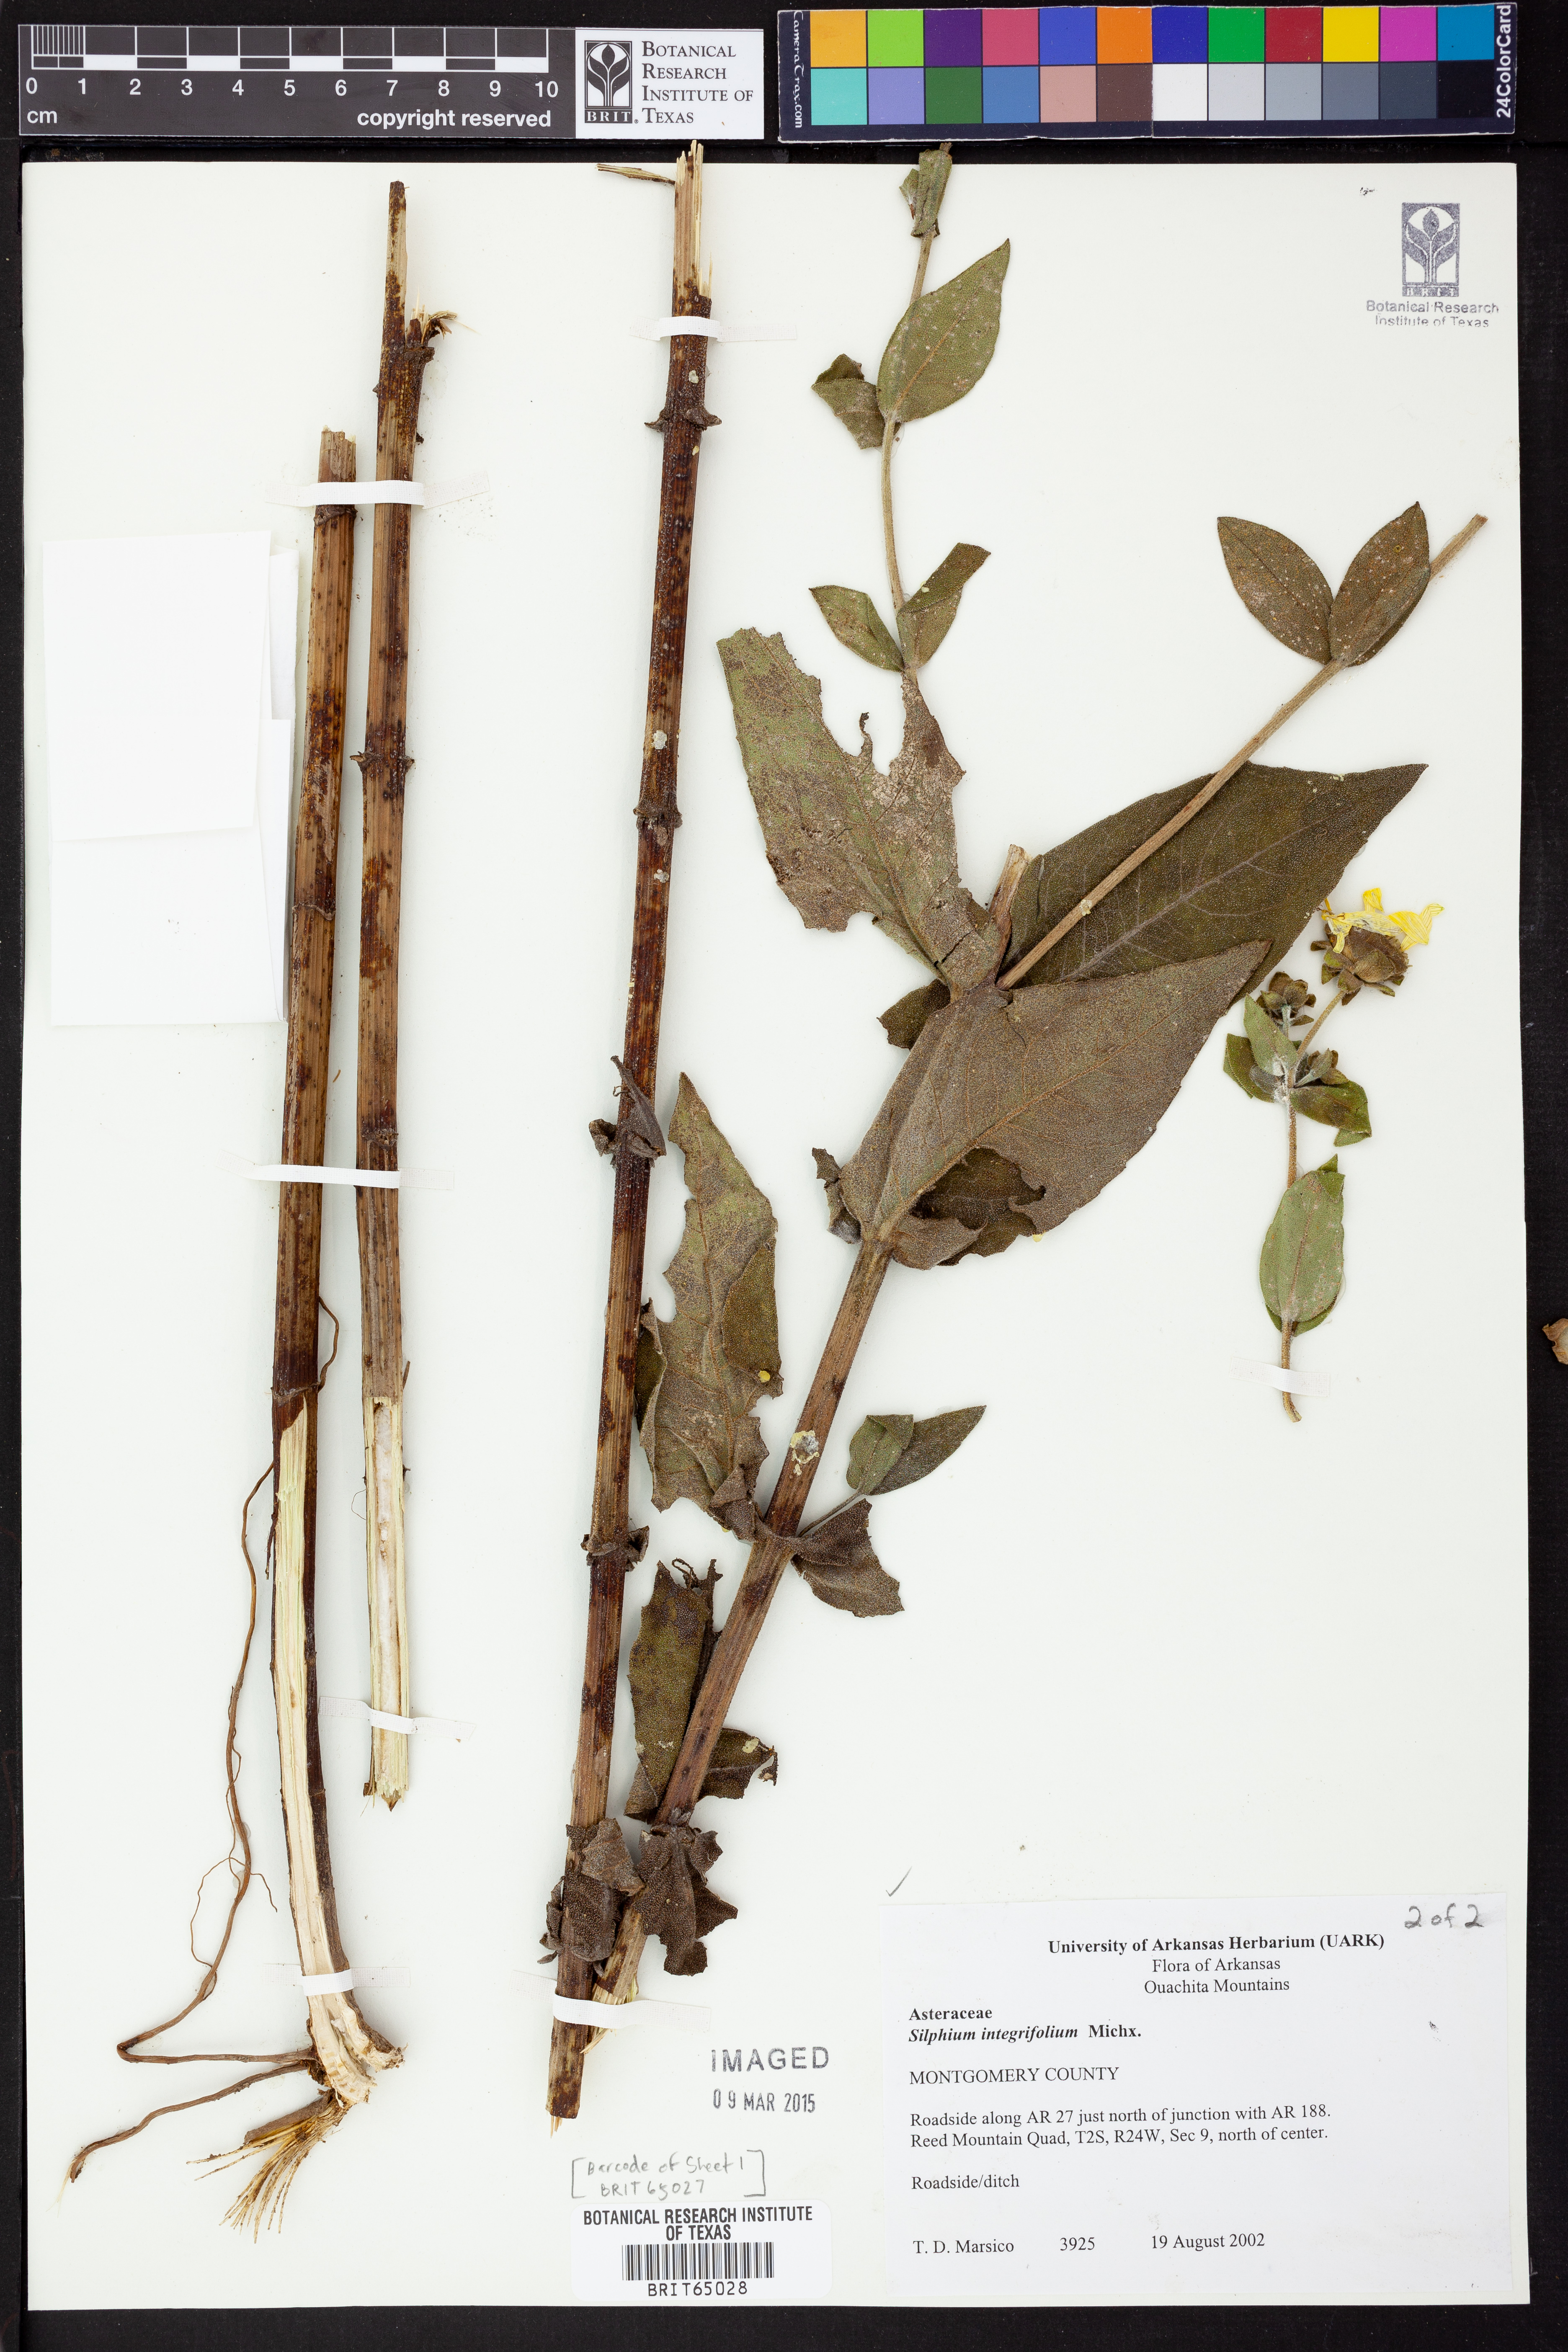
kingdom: Plantae
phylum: Tracheophyta
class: Magnoliopsida
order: Asterales
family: Asteraceae
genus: Silphium
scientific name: Silphium integrifolium
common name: Whole-leaf rosinweed
